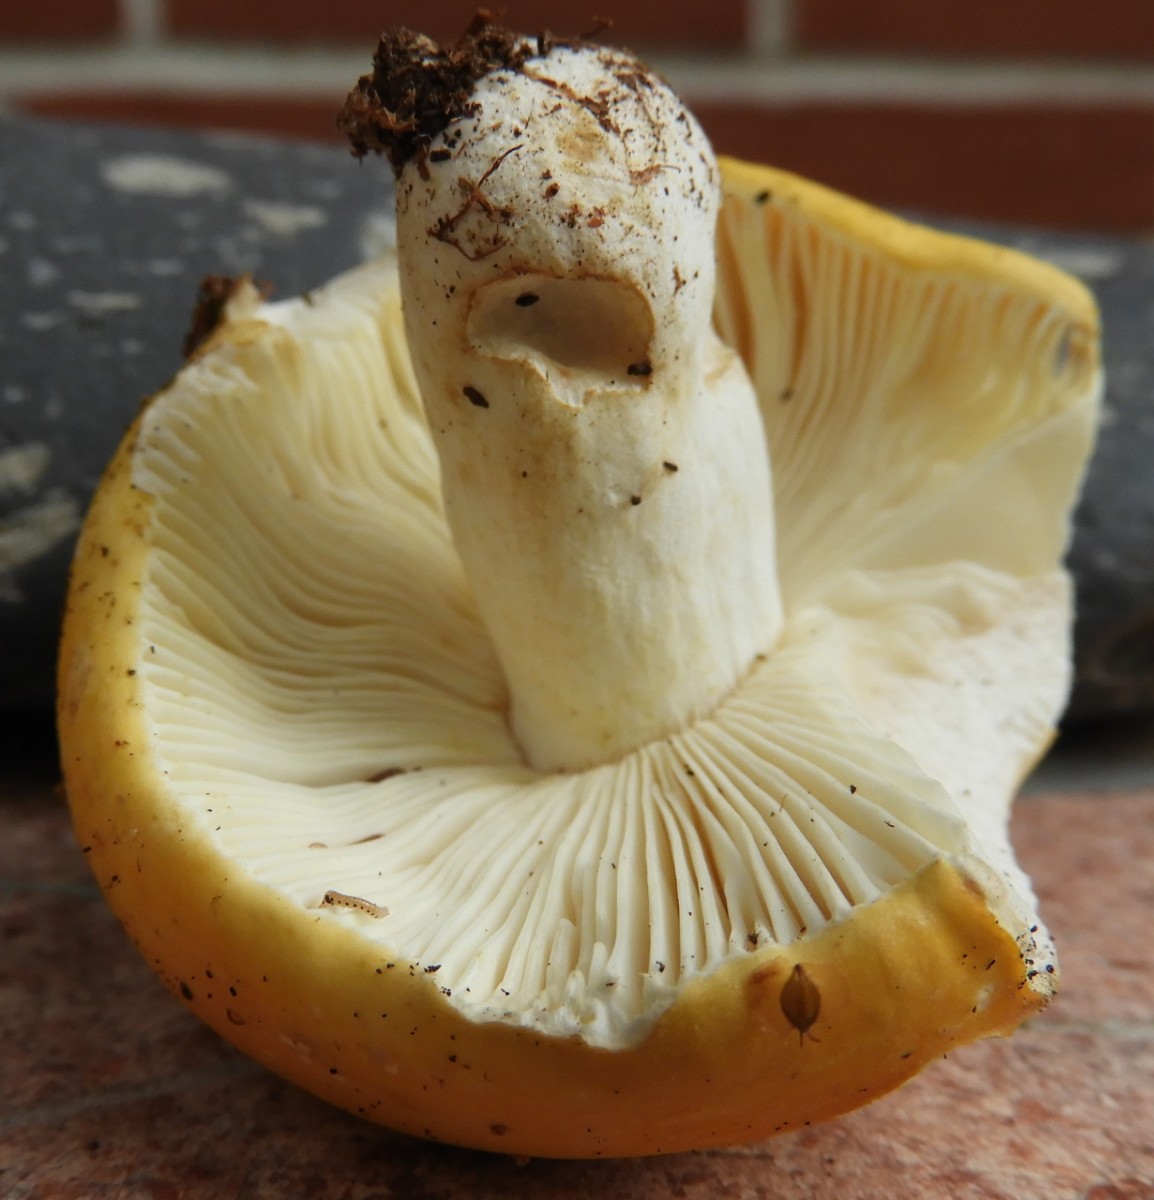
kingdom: Fungi
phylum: Basidiomycota
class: Agaricomycetes
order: Russulales
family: Russulaceae
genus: Russula
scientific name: Russula ochroleuca
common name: okkergul skørhat
